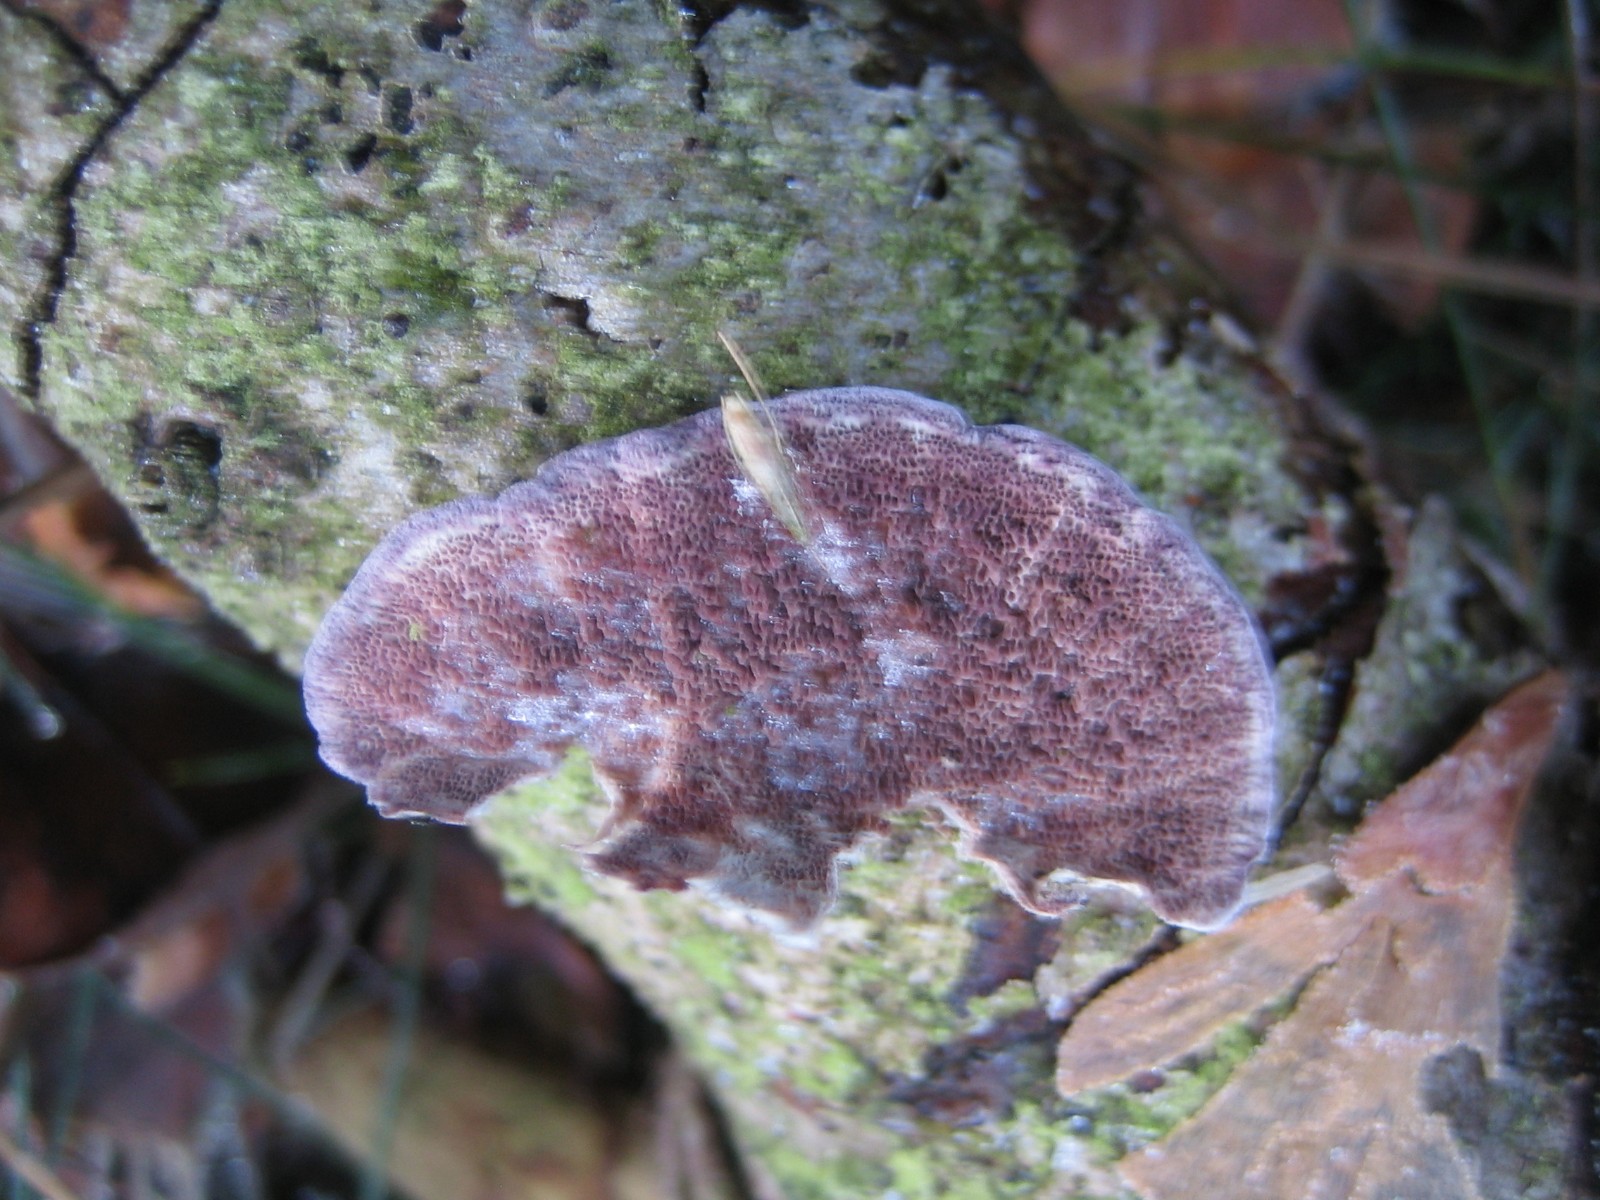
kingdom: Fungi
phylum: Basidiomycota
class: Agaricomycetes
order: Hymenochaetales
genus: Trichaptum
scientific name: Trichaptum abietinum
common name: almindelig violporesvamp
